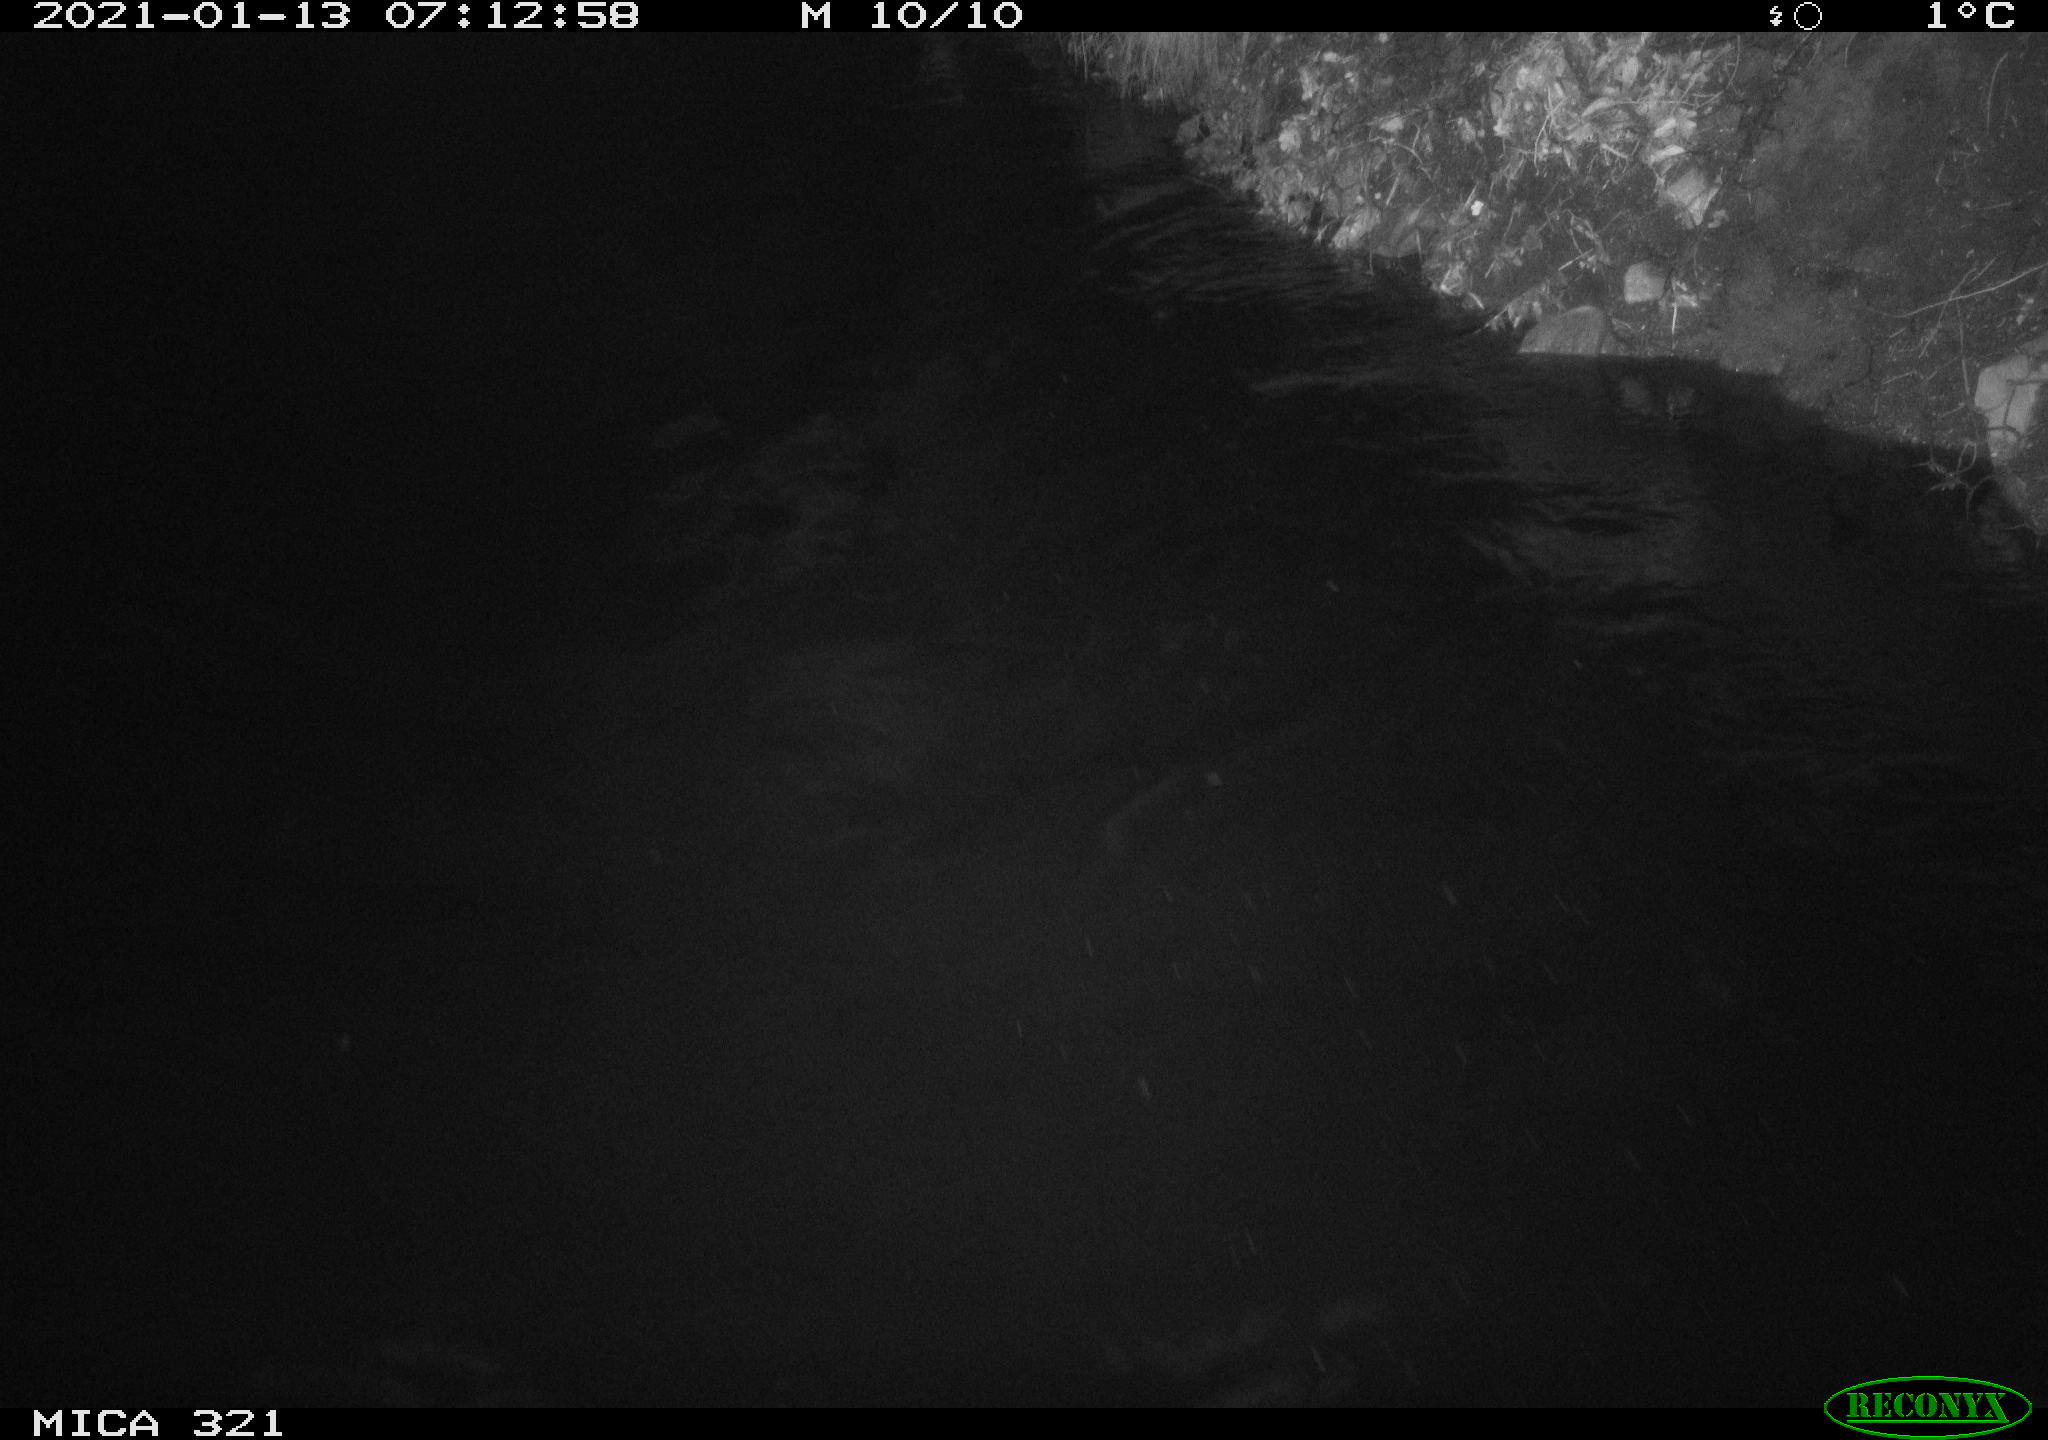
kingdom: Animalia
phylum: Chordata
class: Aves
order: Anseriformes
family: Anatidae
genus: Anas
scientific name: Anas platyrhynchos
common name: Mallard
